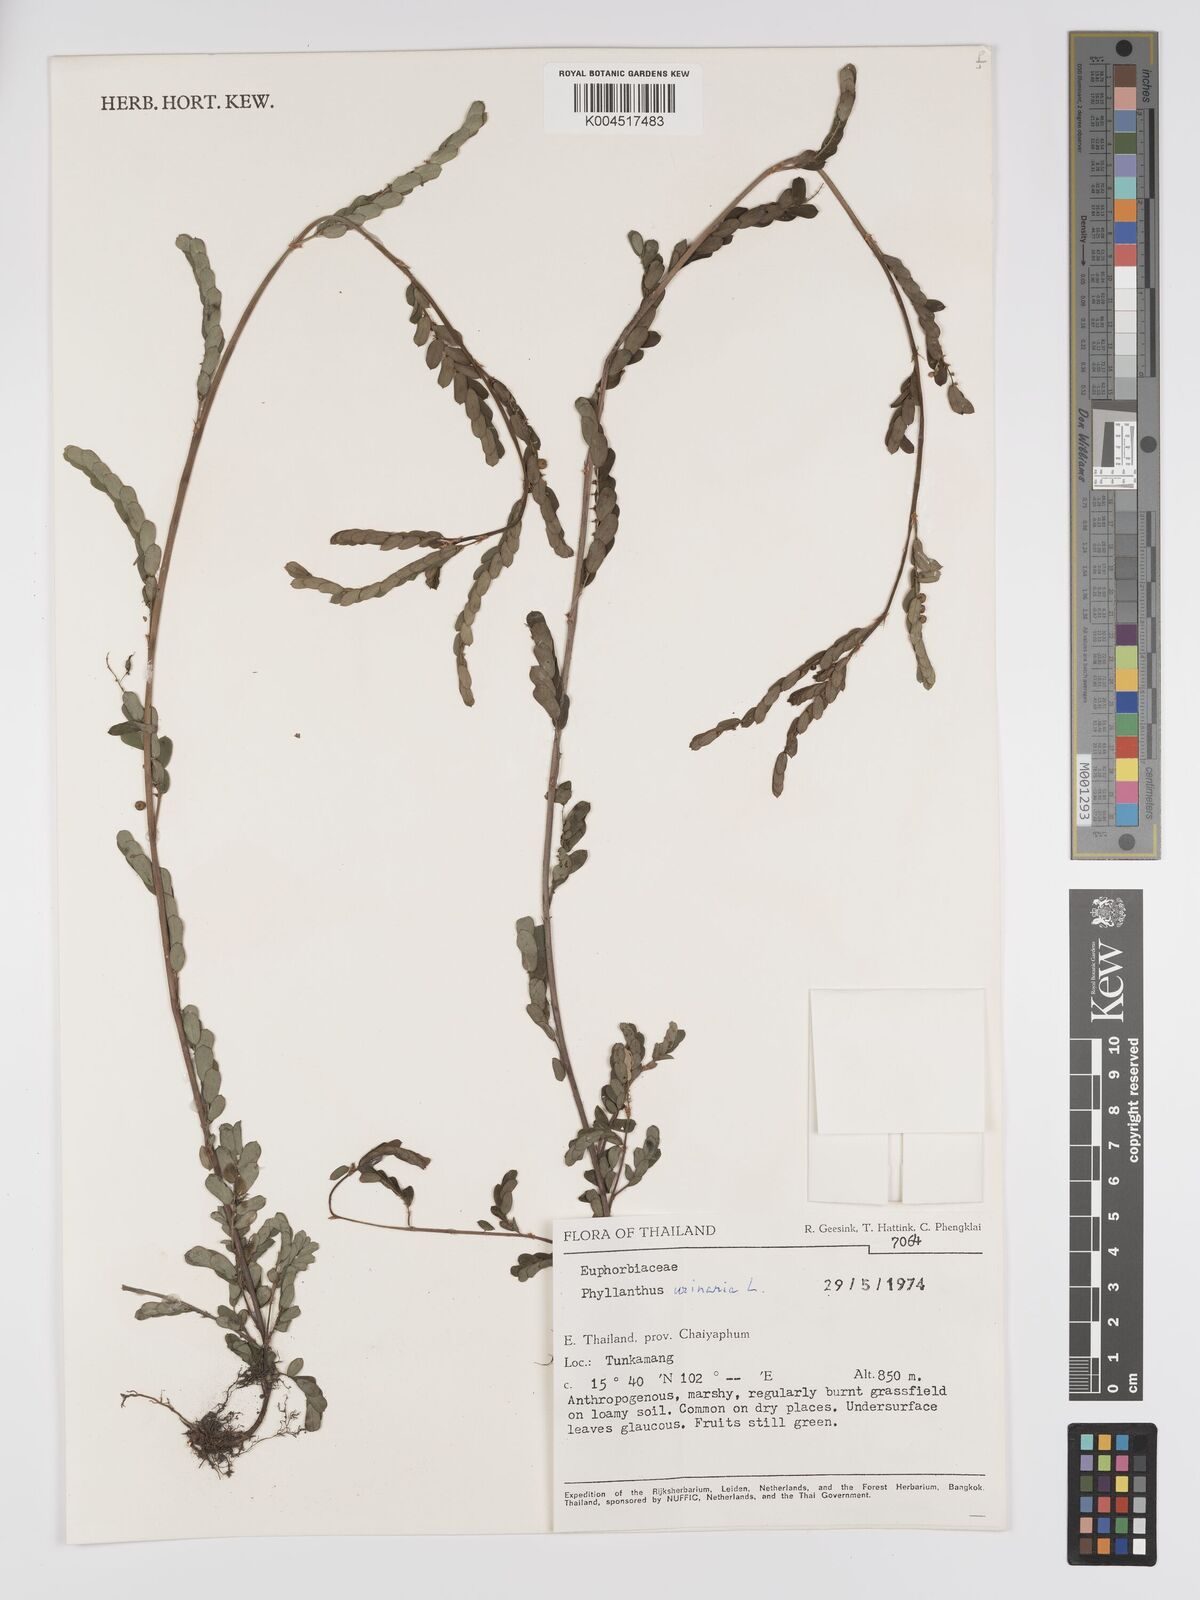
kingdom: Plantae
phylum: Tracheophyta
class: Magnoliopsida
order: Malpighiales
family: Phyllanthaceae
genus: Phyllanthus
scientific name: Phyllanthus urinaria
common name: Chamber bitter
